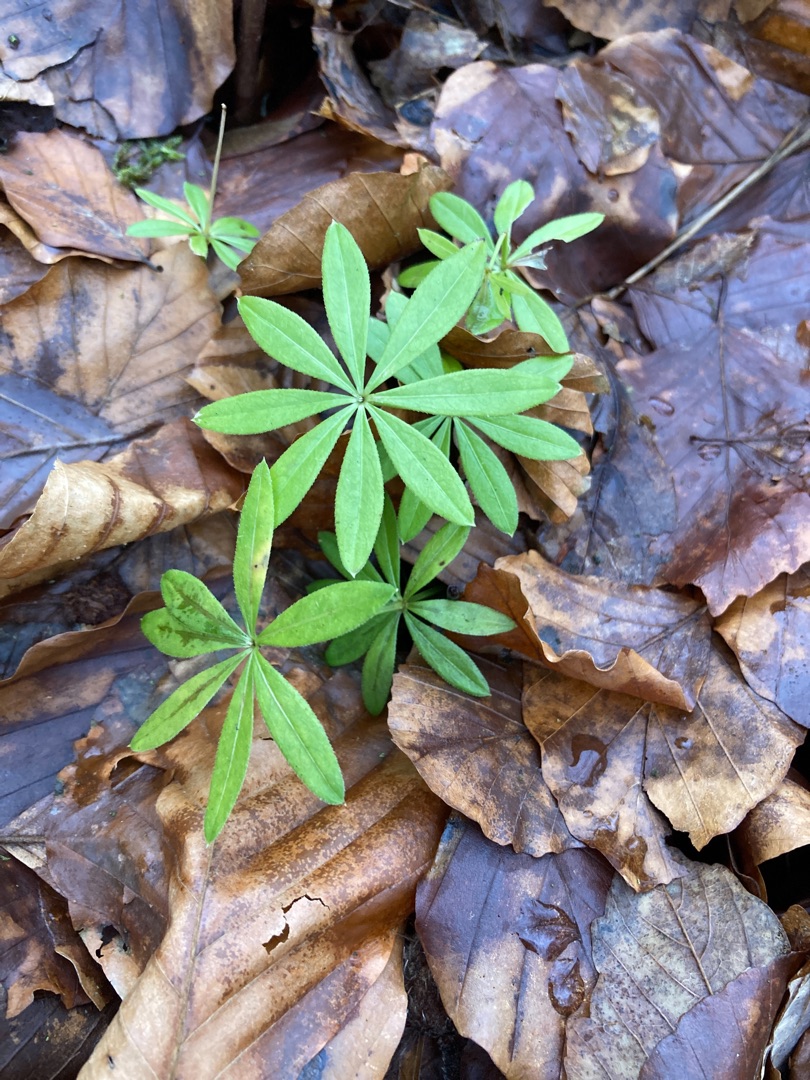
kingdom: Plantae
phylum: Tracheophyta
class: Magnoliopsida
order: Gentianales
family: Rubiaceae
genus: Galium
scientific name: Galium odoratum
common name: Skovmærke
